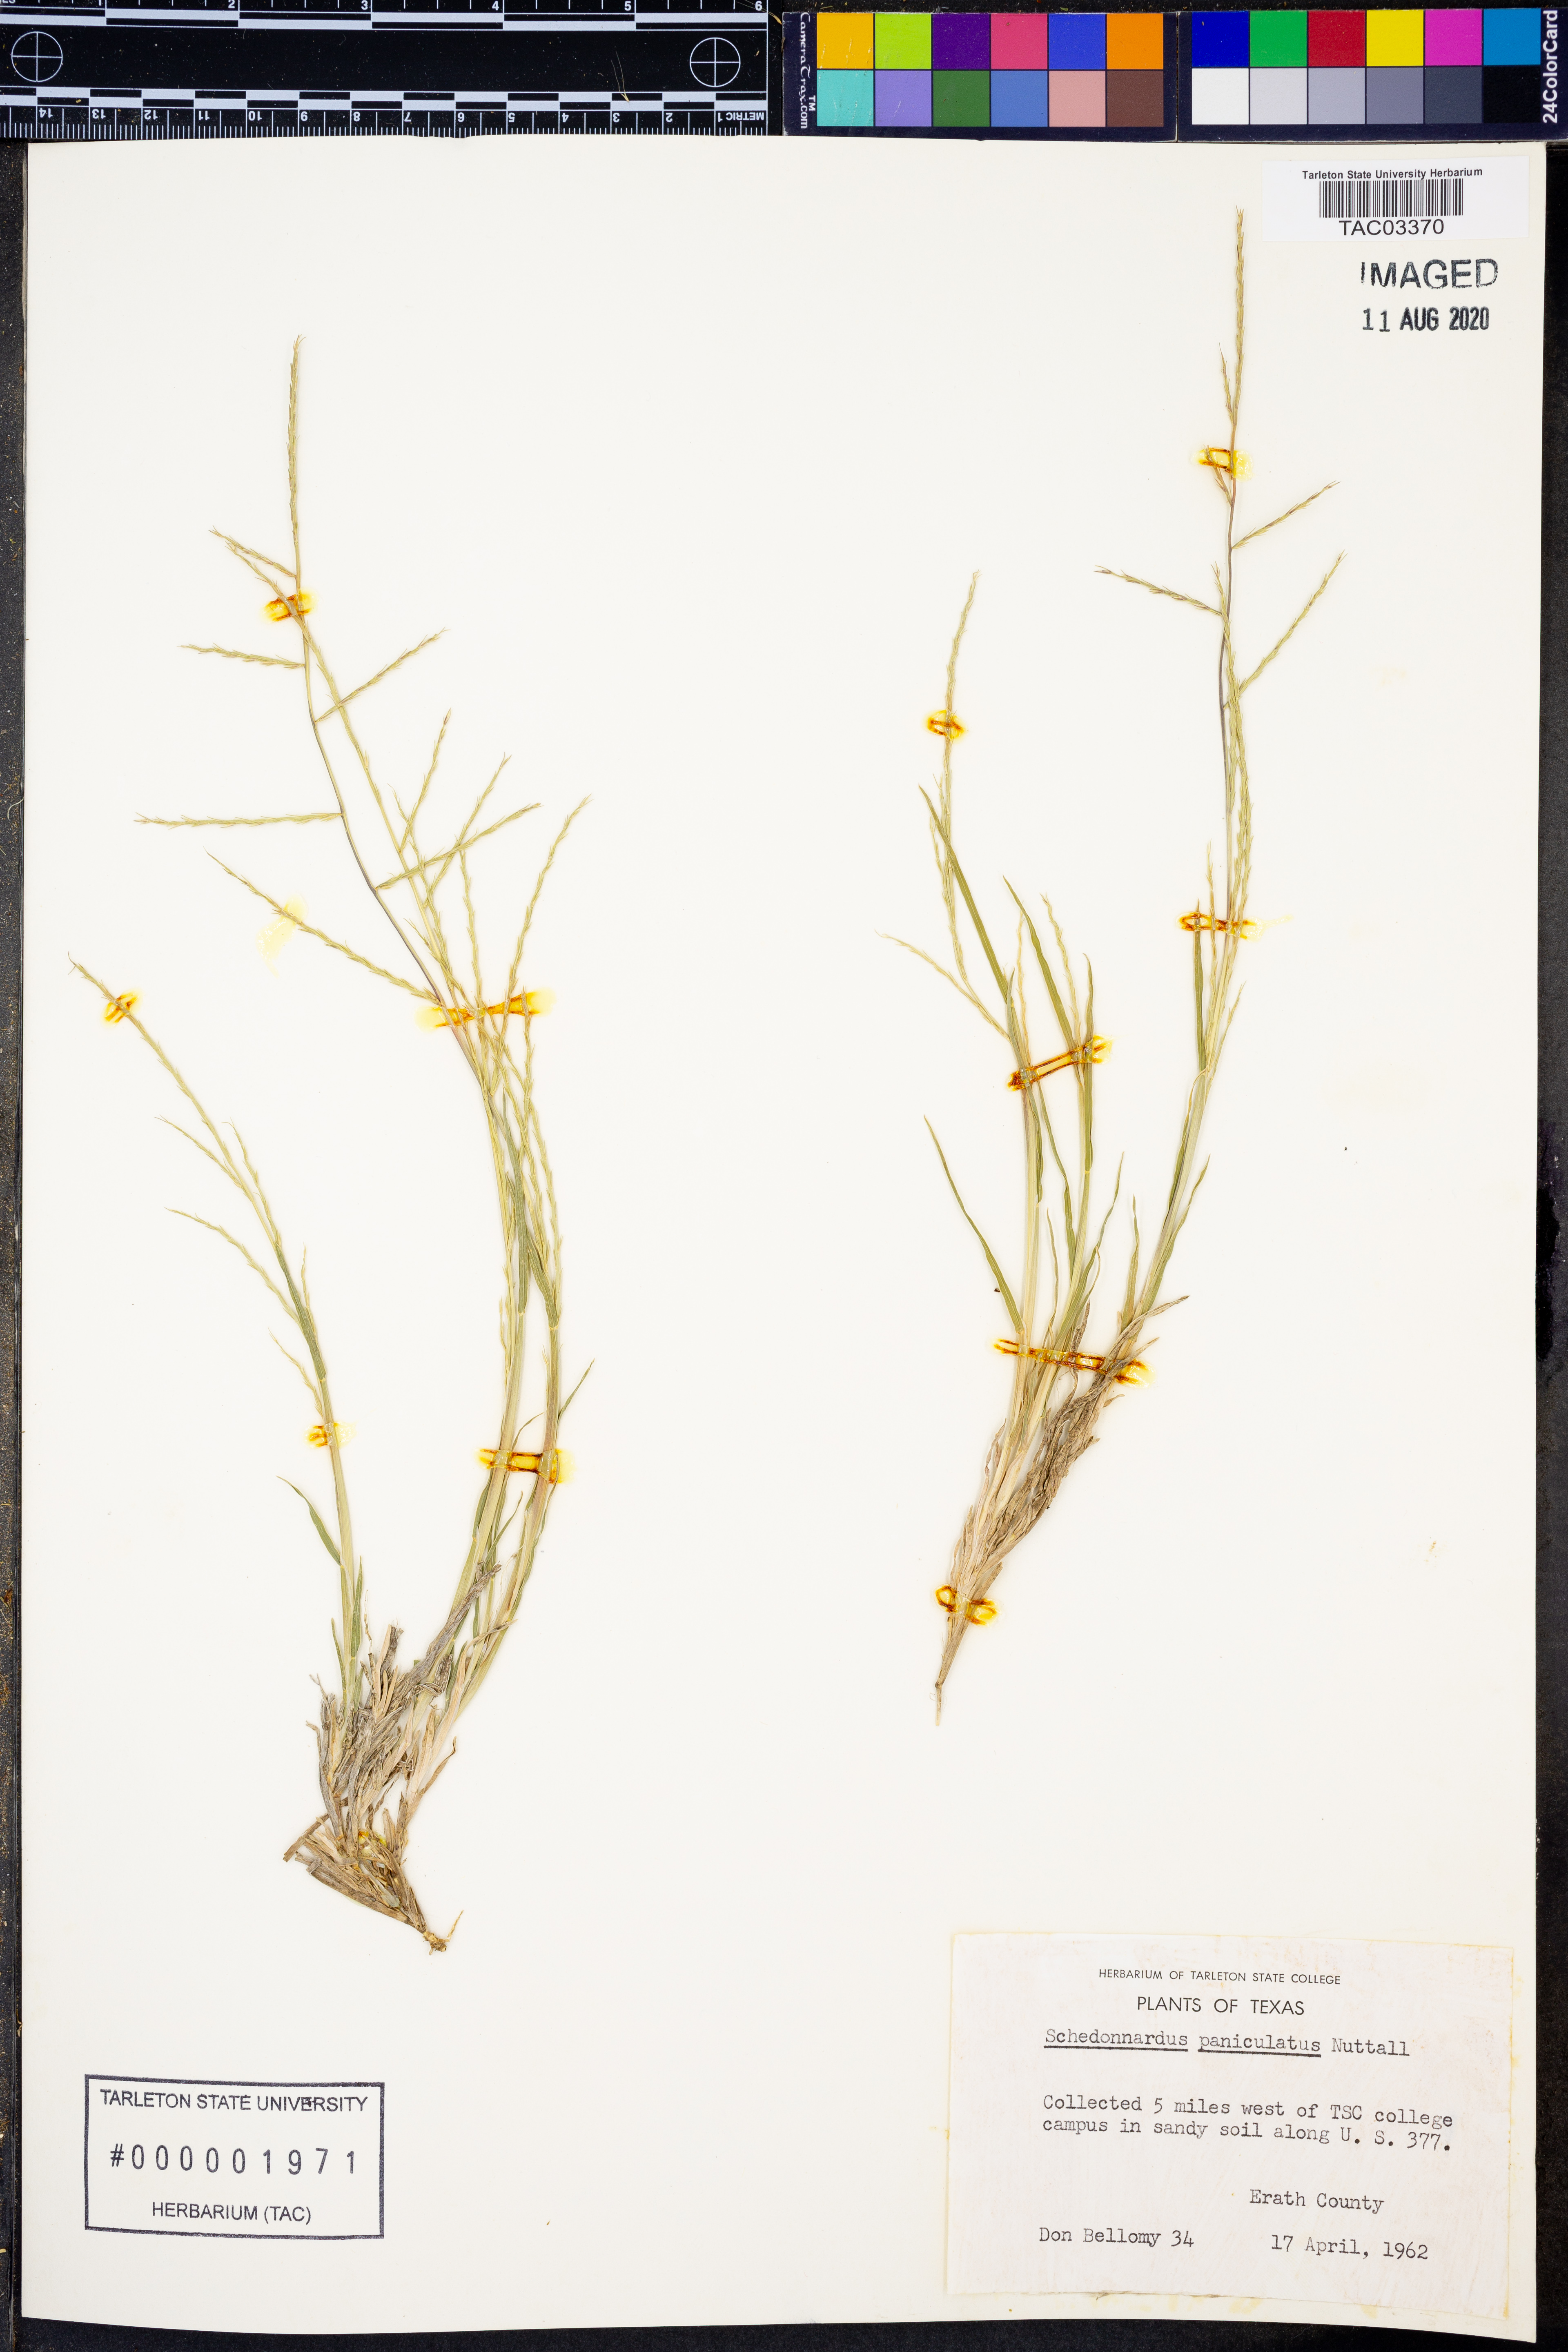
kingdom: Plantae
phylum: Tracheophyta
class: Liliopsida
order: Poales
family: Poaceae
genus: Muhlenbergia
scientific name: Muhlenbergia paniculata
